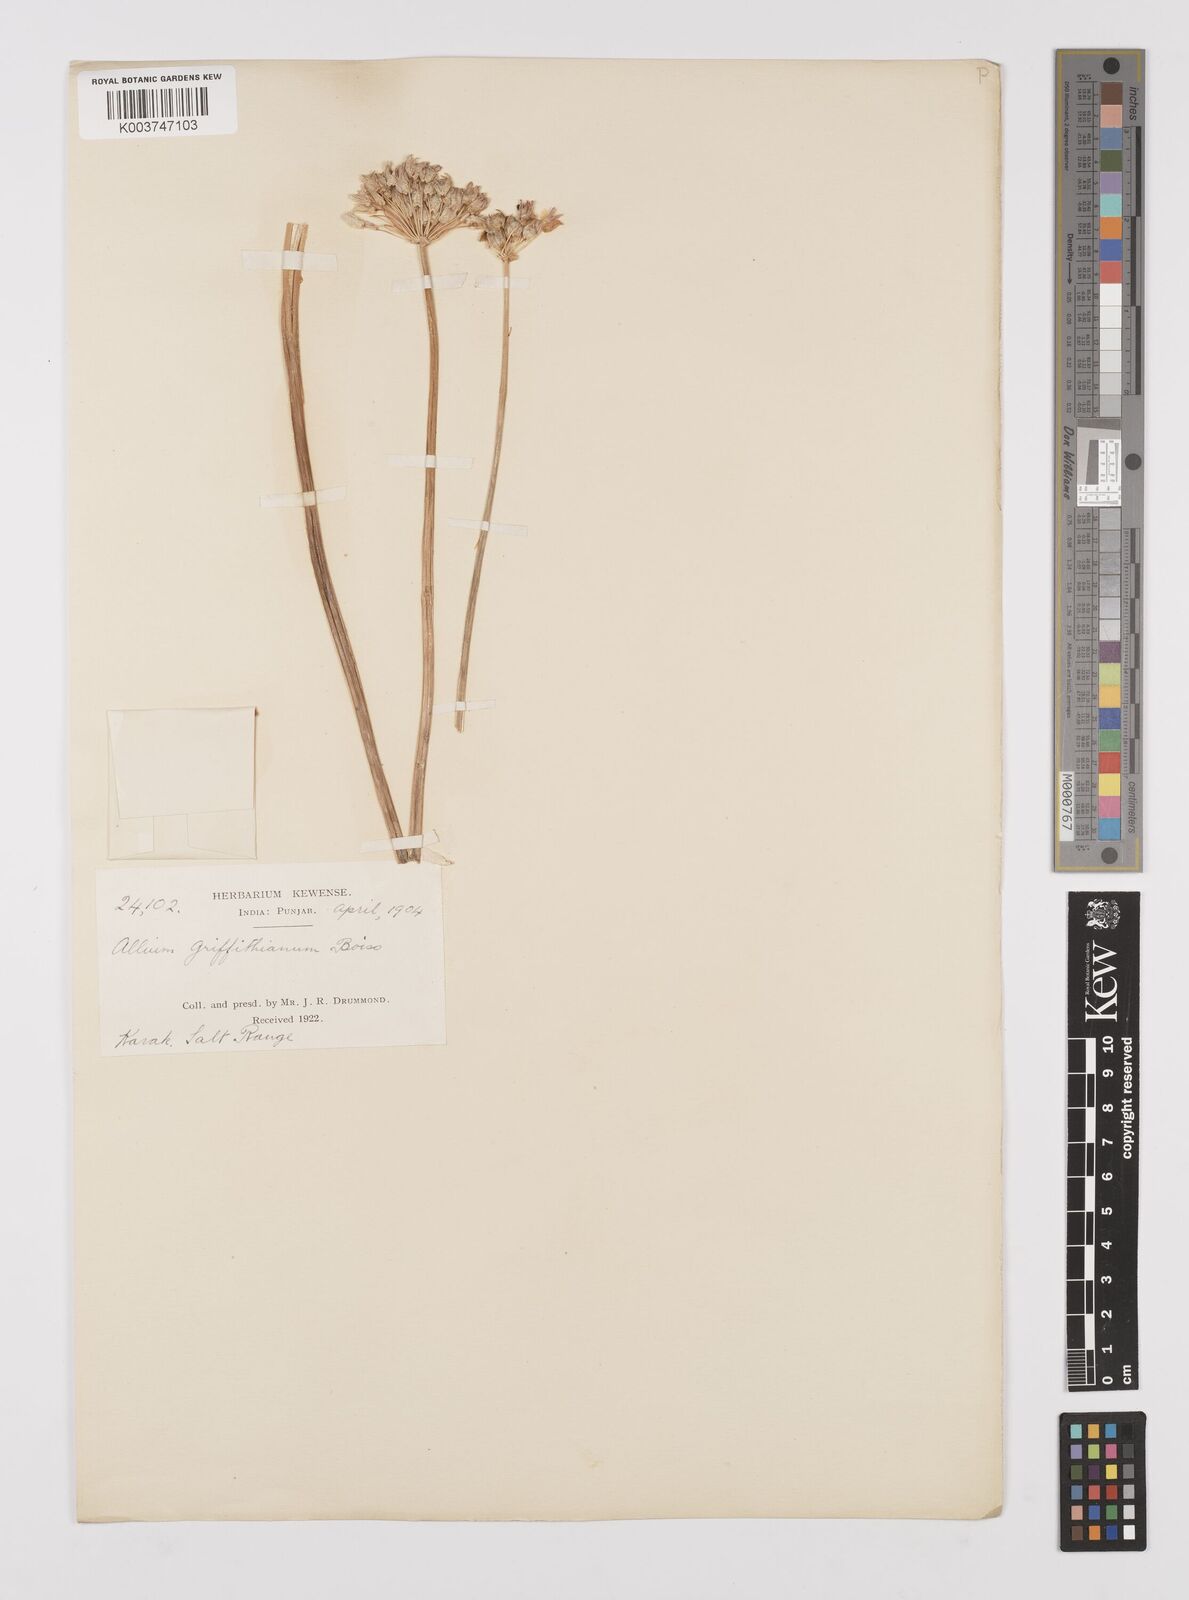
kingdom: Plantae
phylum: Tracheophyta
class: Liliopsida
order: Asparagales
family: Amaryllidaceae
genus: Allium
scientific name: Allium griffithianum
